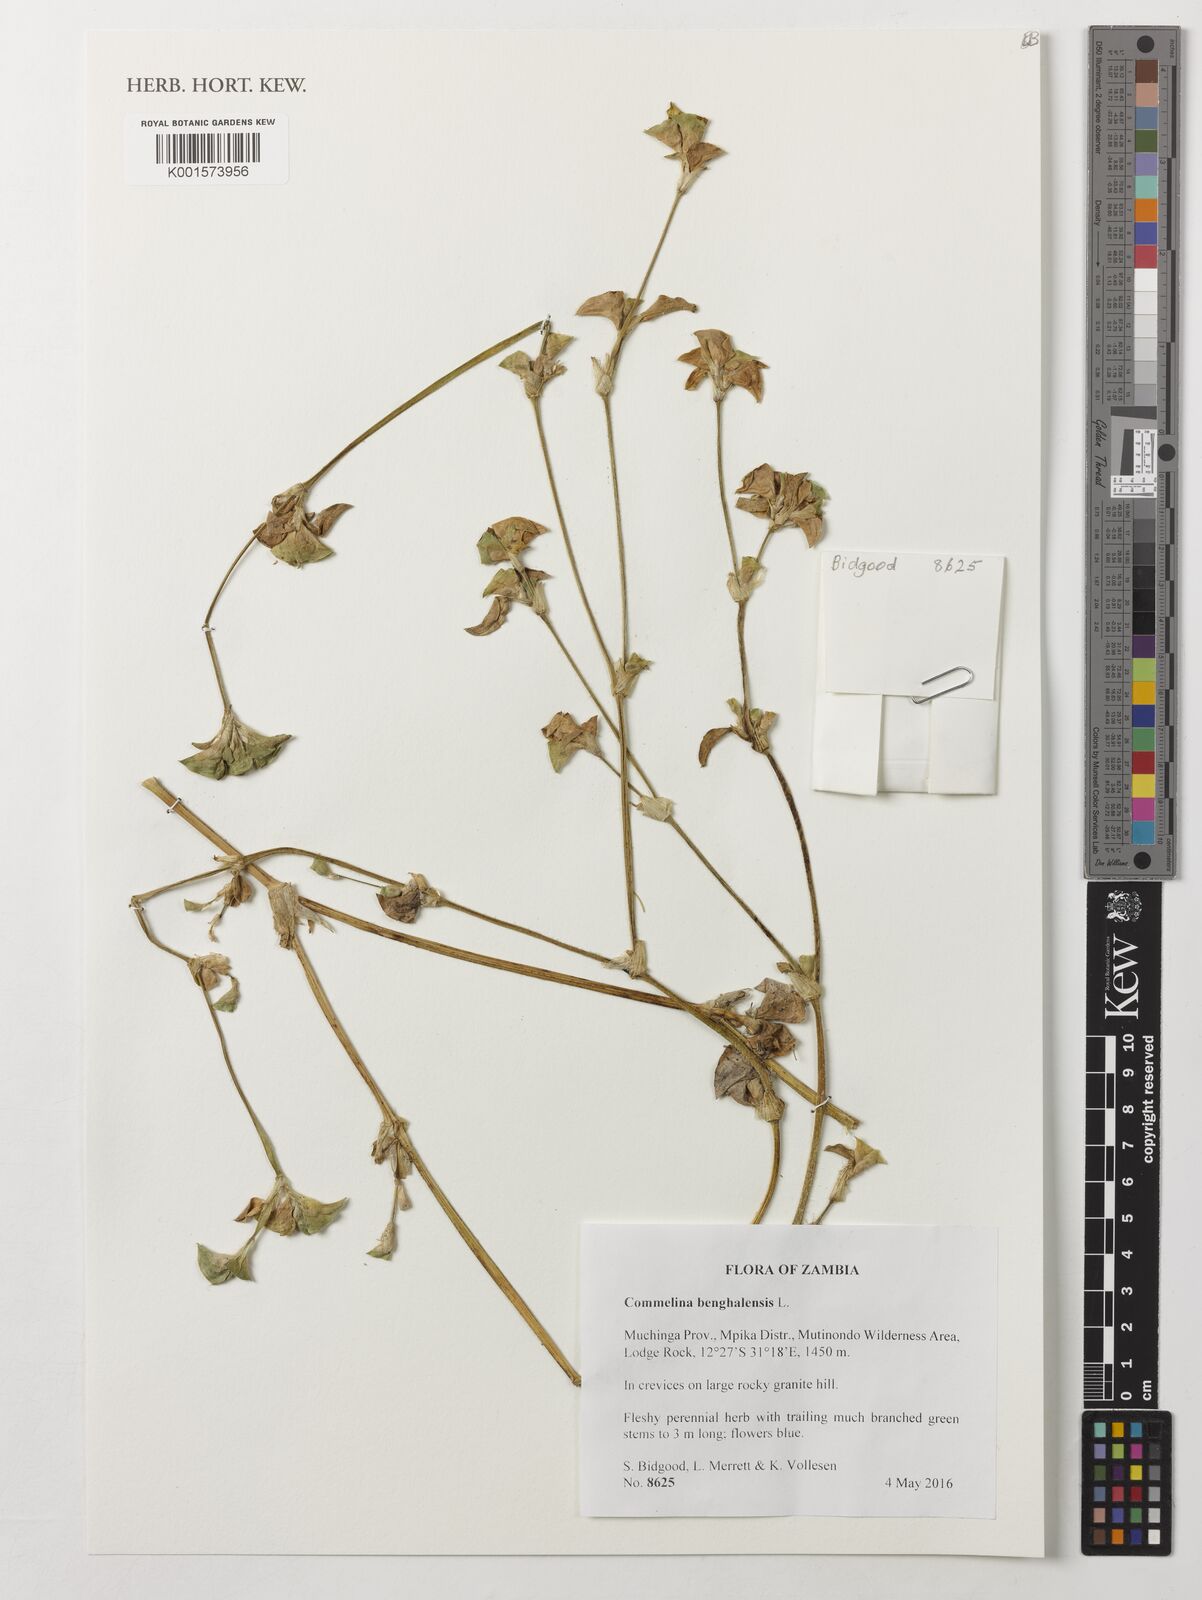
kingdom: Plantae
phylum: Tracheophyta
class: Liliopsida
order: Commelinales
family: Commelinaceae
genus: Commelina
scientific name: Commelina benghalensis
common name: Jio
